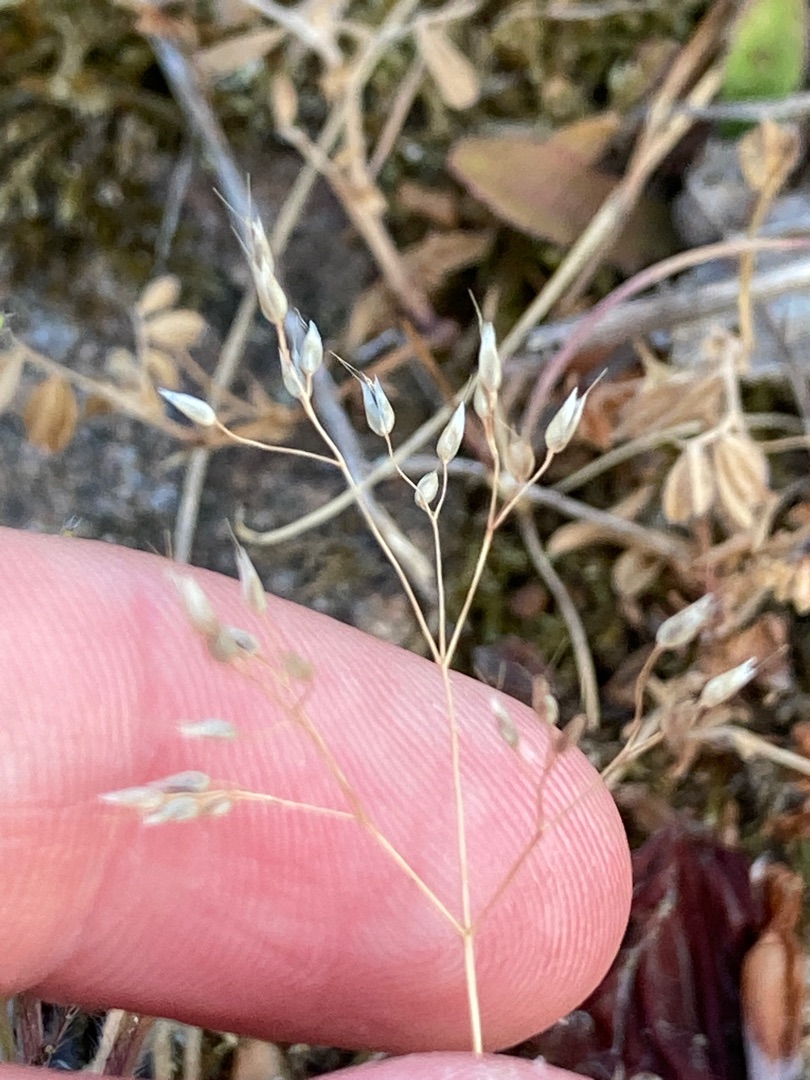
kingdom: Plantae
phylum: Tracheophyta
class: Liliopsida
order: Poales
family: Poaceae
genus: Aira
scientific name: Aira caryophyllea
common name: Udspærret dværgbunke
